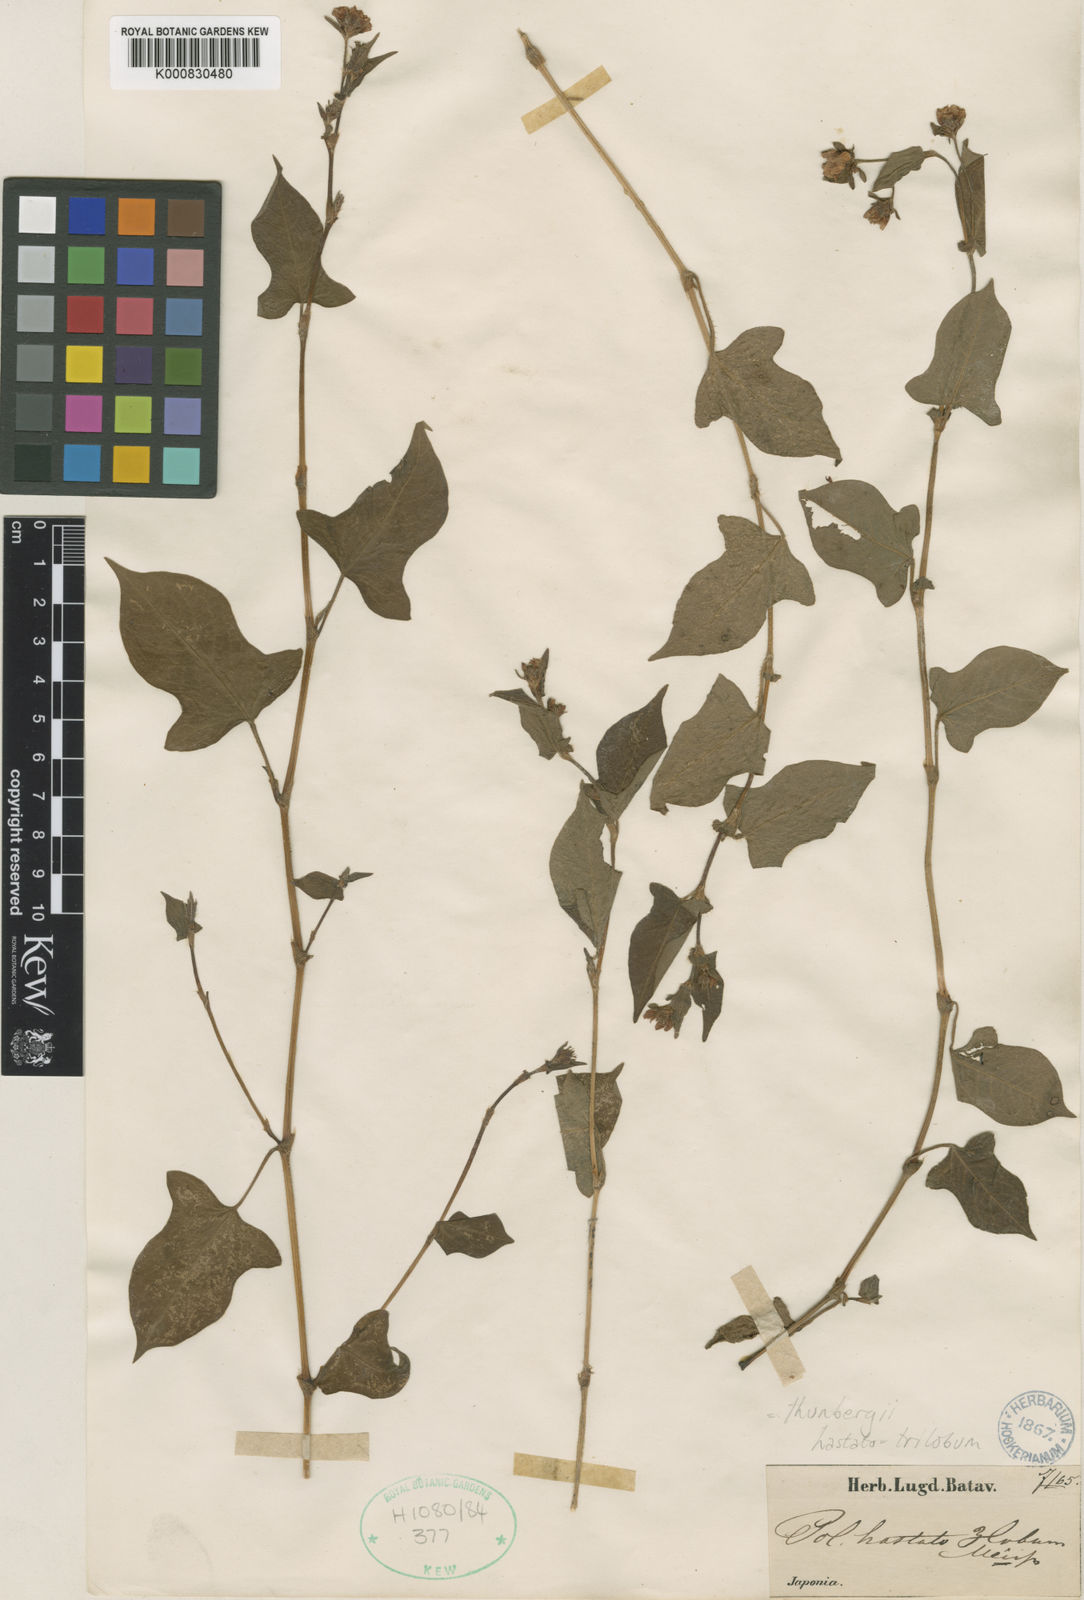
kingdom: Plantae
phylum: Tracheophyta
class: Magnoliopsida
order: Caryophyllales
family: Polygonaceae
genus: Persicaria
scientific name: Persicaria thunbergii
